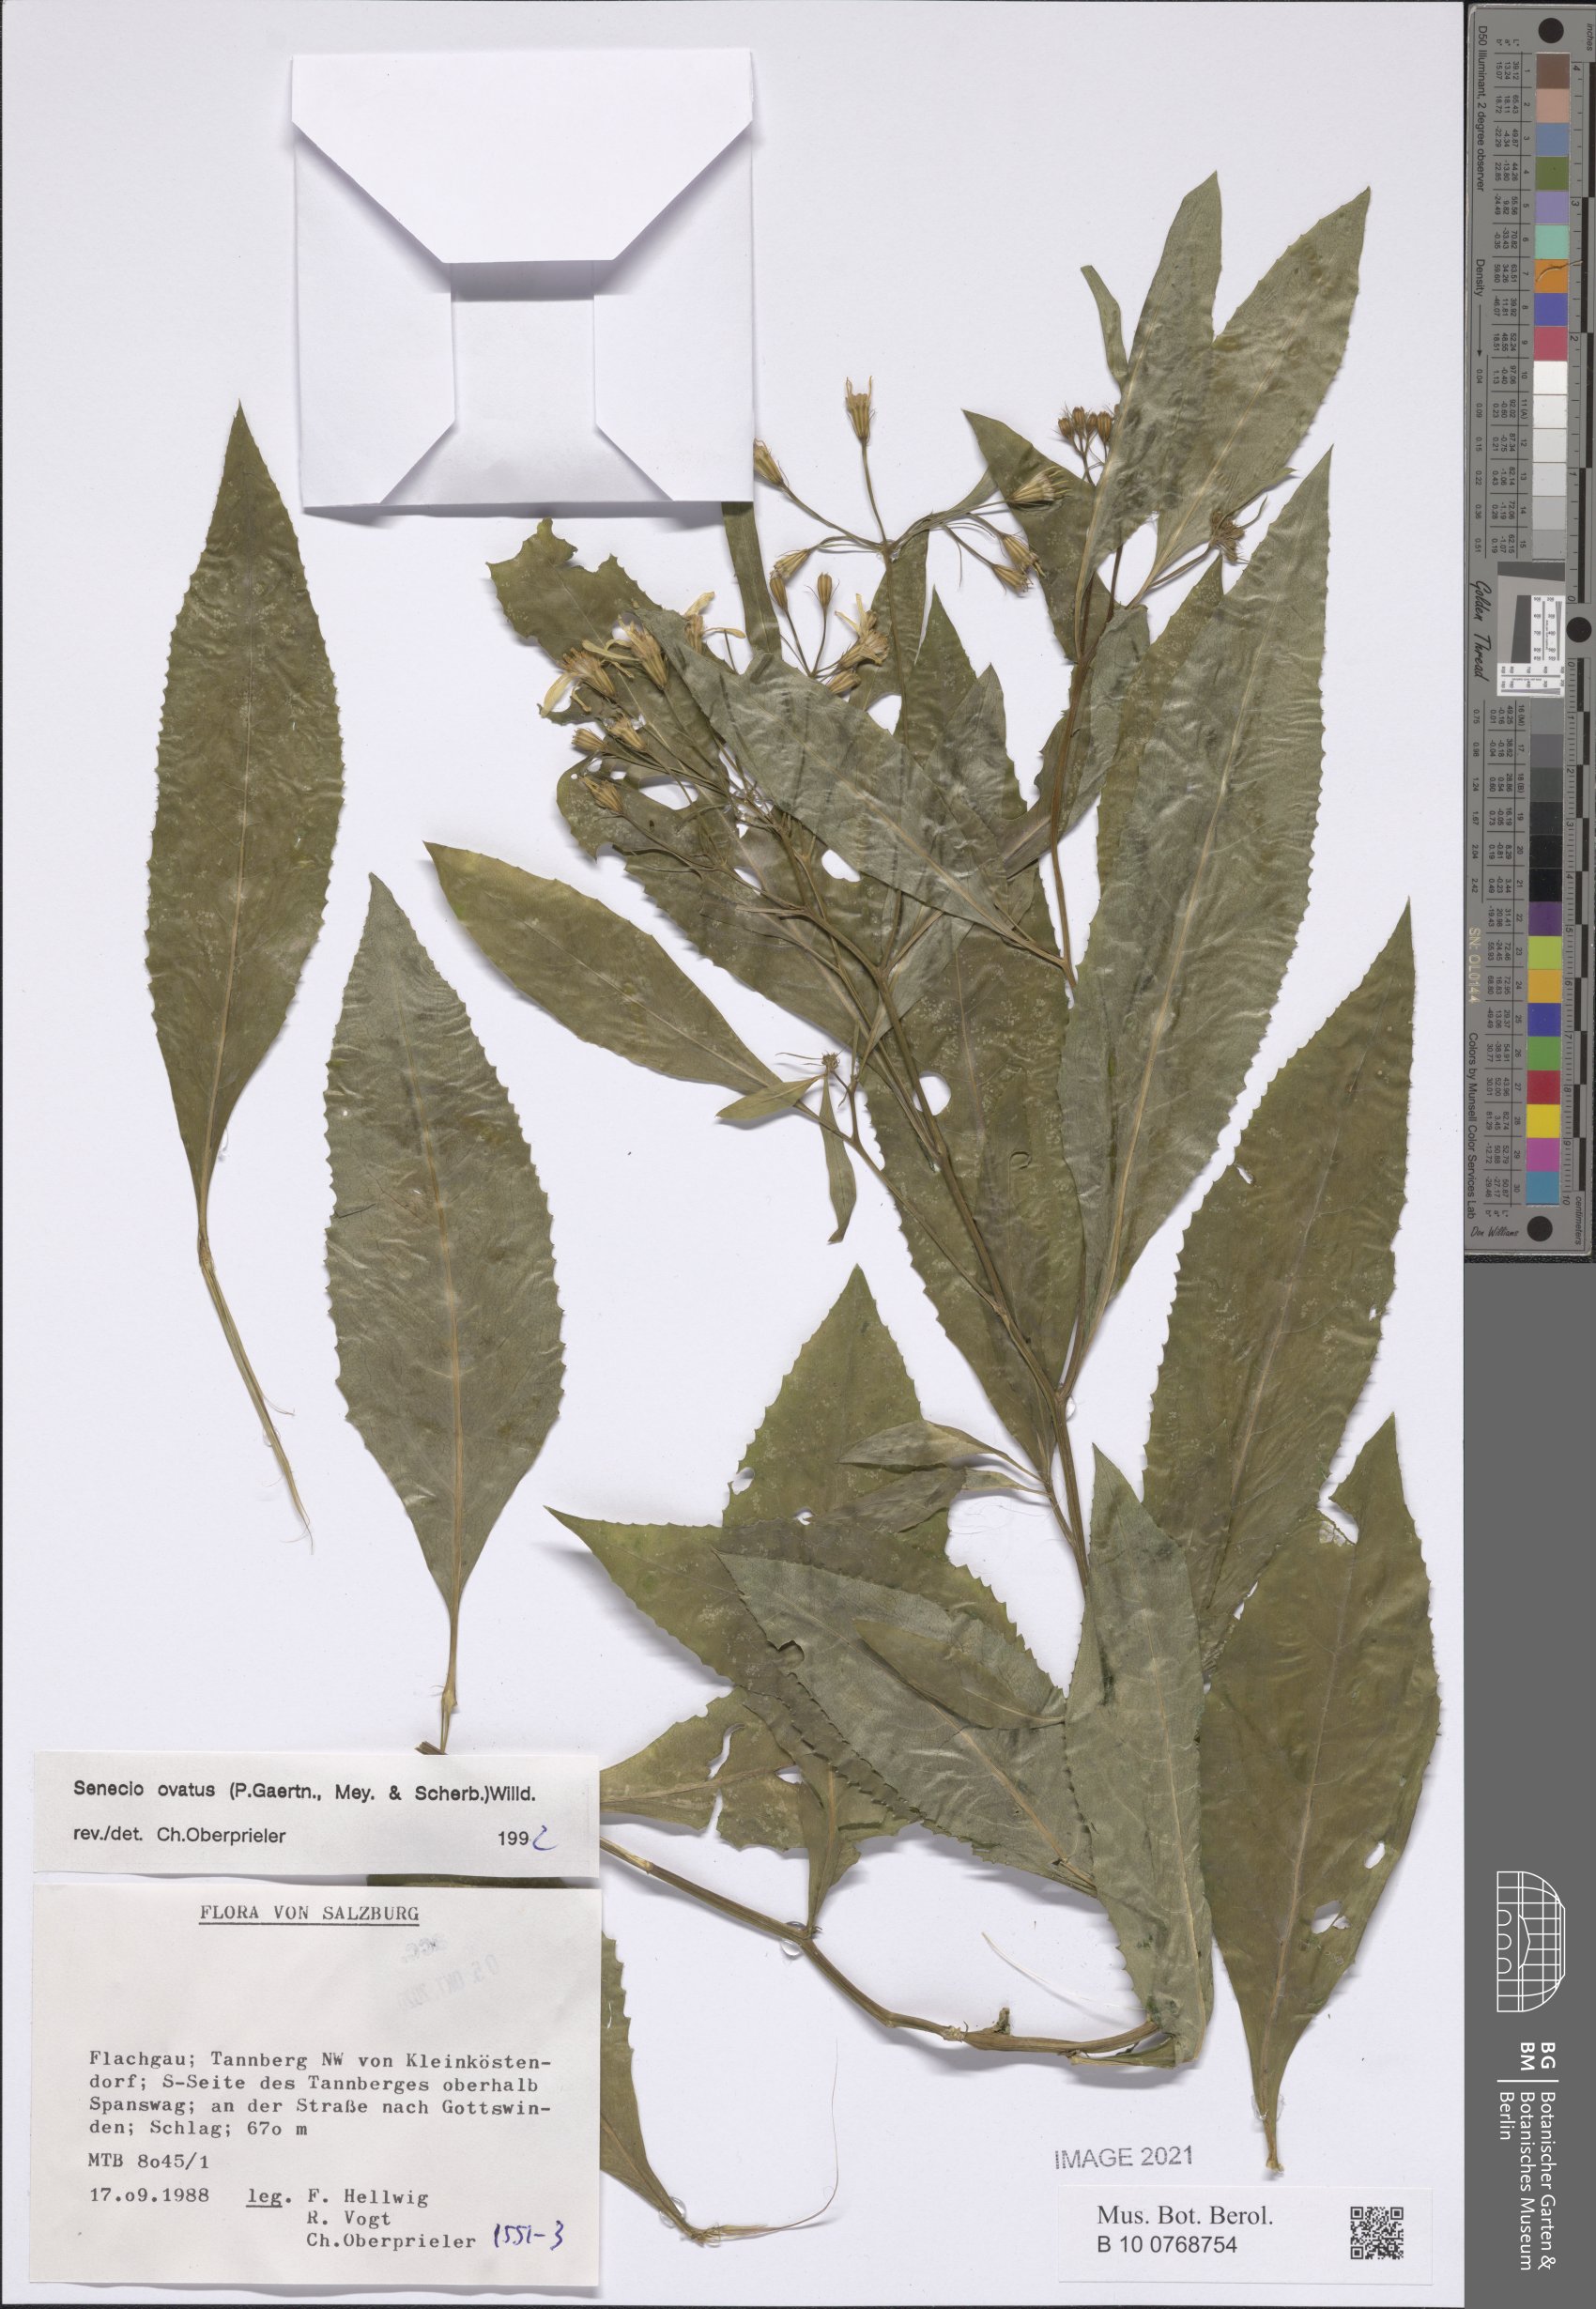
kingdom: Plantae
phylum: Tracheophyta
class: Magnoliopsida
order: Asterales
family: Asteraceae
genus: Senecio
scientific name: Senecio ovatus
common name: Wood ragwort
